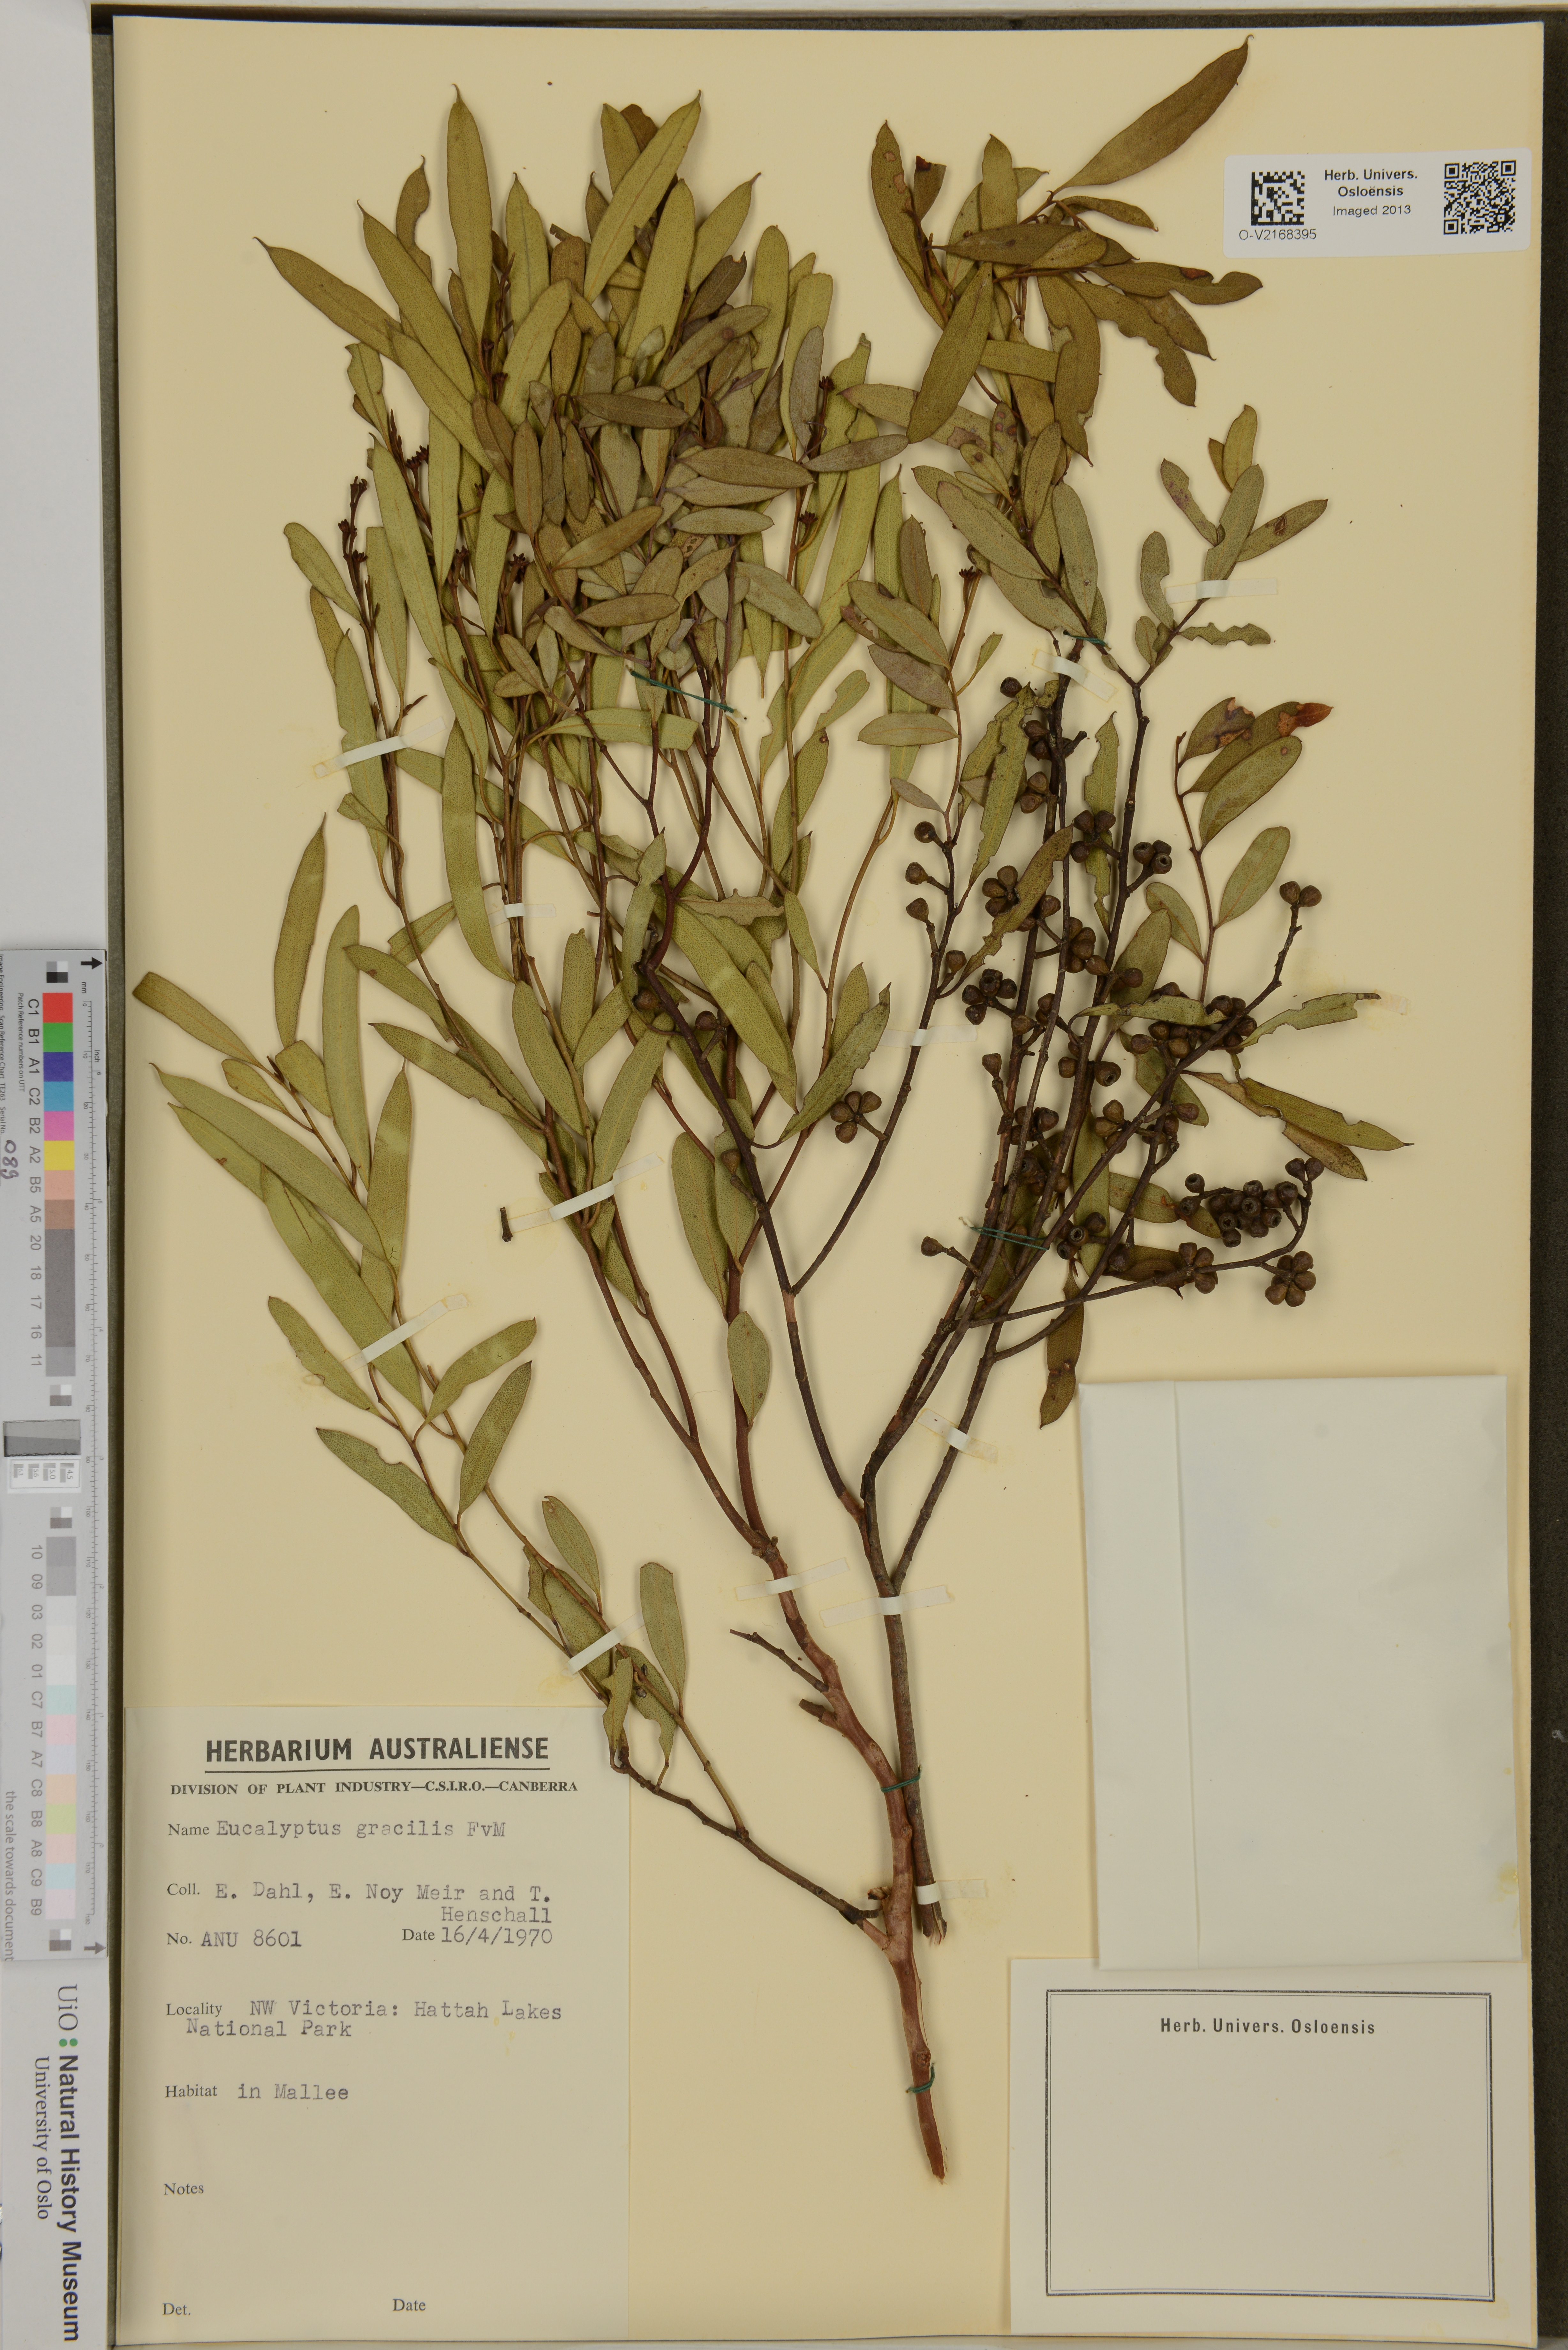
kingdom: Plantae
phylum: Tracheophyta
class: Magnoliopsida
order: Myrtales
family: Myrtaceae
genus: Eucalyptus
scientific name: Eucalyptus gracilis
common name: White mallee
